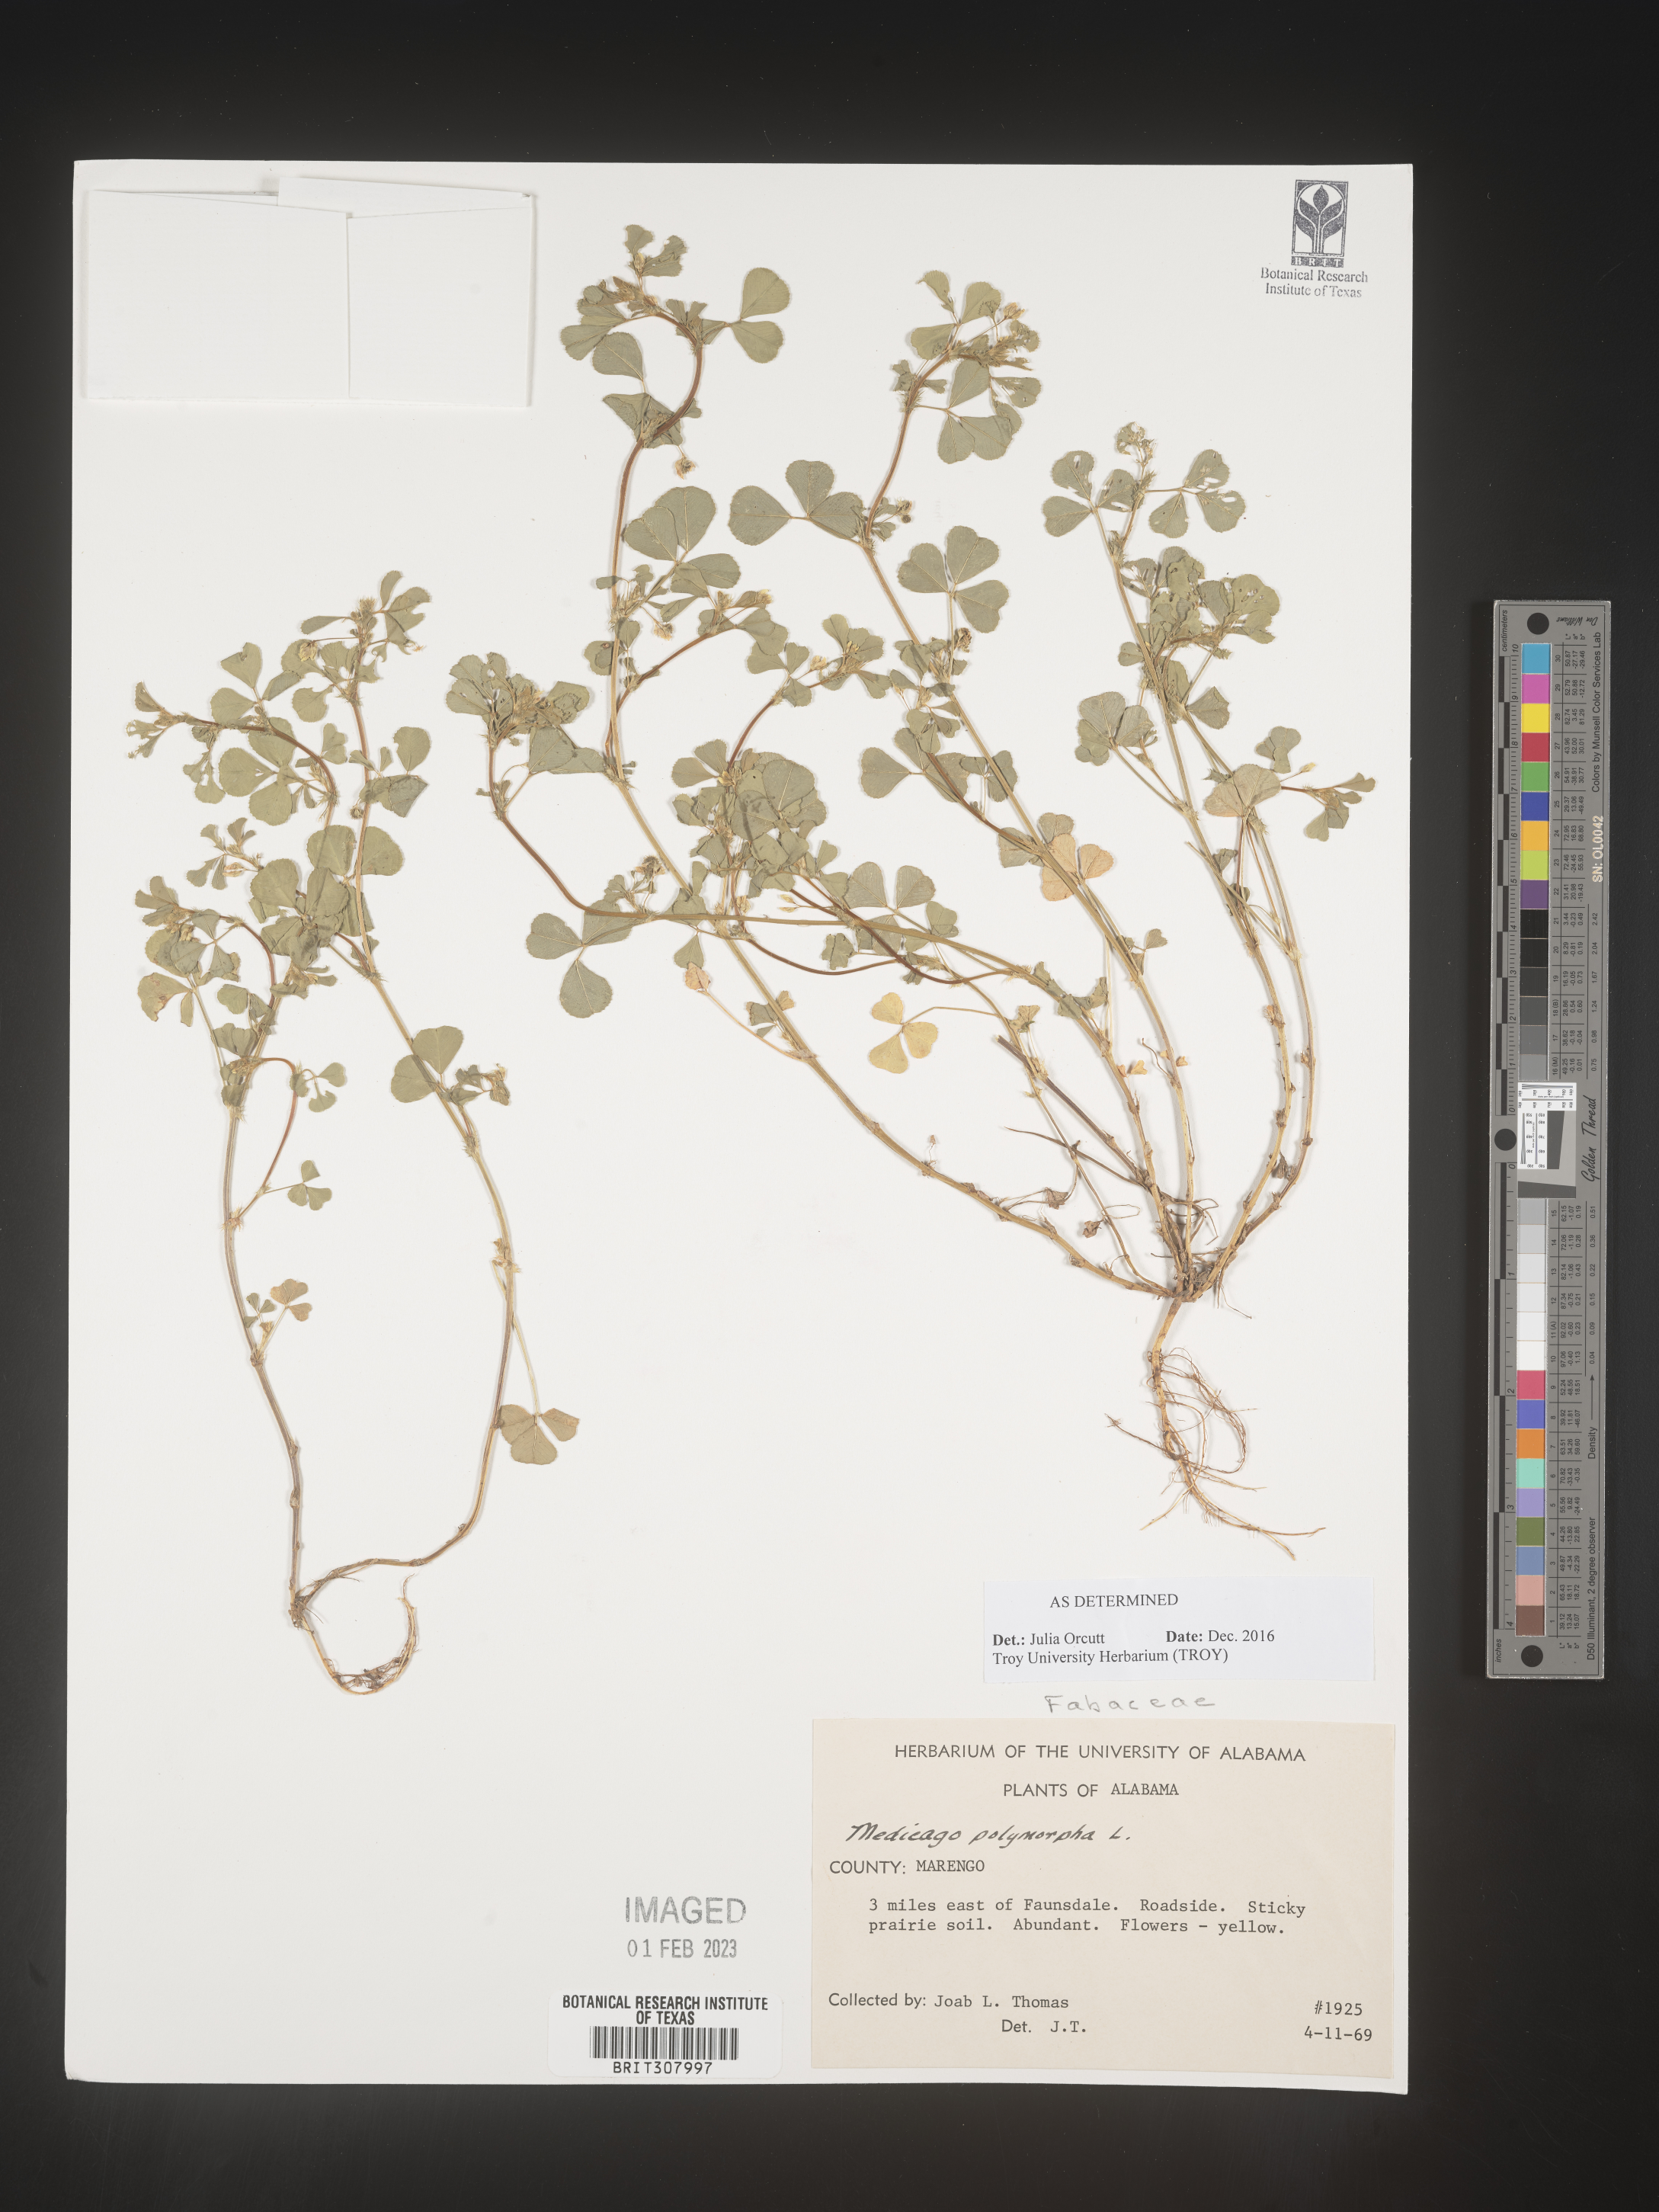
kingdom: Plantae
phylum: Tracheophyta
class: Magnoliopsida
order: Fabales
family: Fabaceae
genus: Medicago
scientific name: Medicago polymorpha
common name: Burclover
